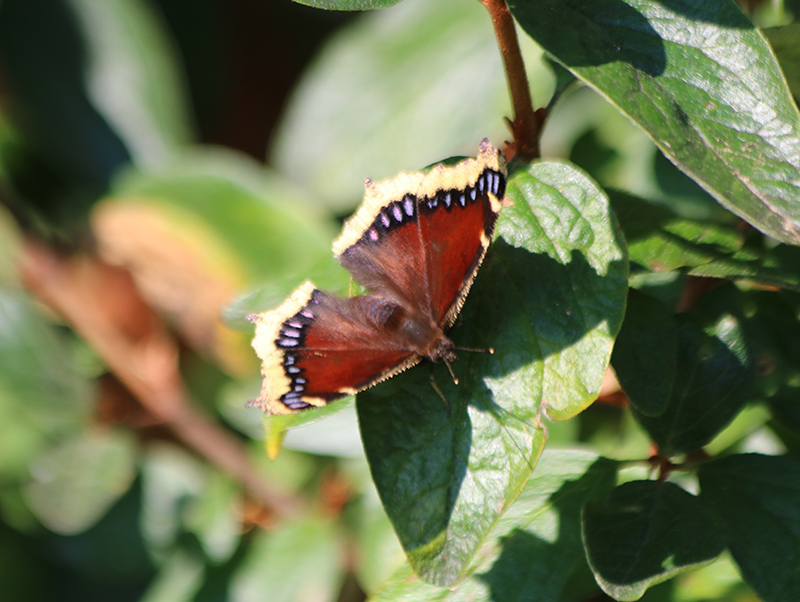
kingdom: Animalia
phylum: Arthropoda
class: Insecta
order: Lepidoptera
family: Nymphalidae
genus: Nymphalis
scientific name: Nymphalis antiopa
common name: Mourning Cloak
